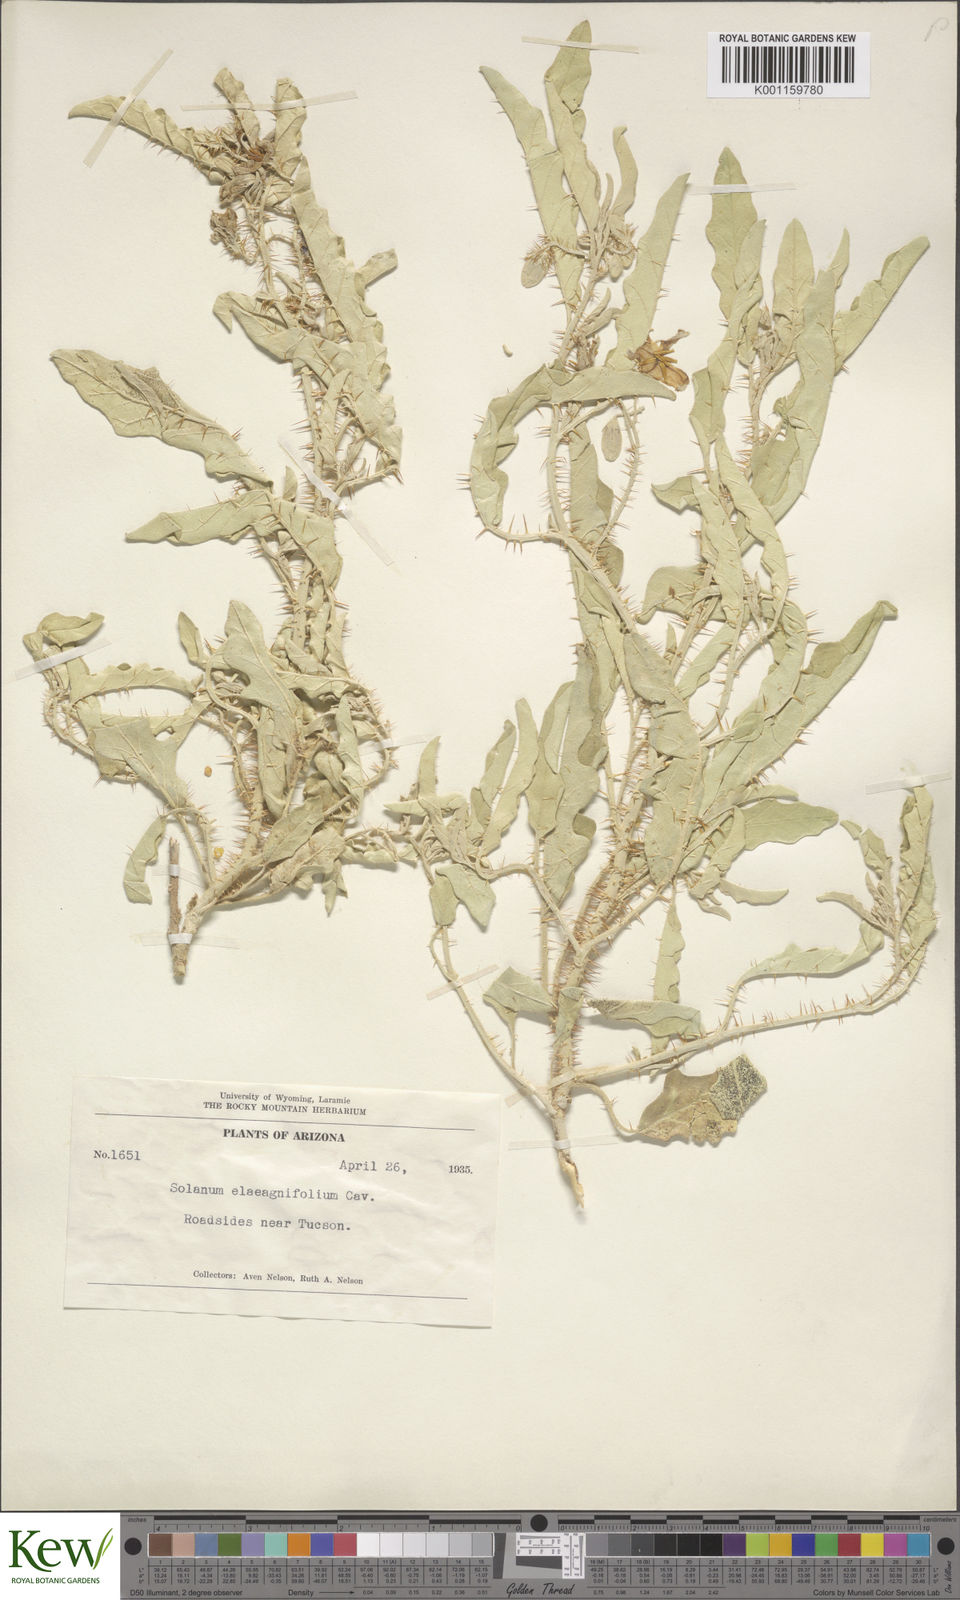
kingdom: Plantae
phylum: Tracheophyta
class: Magnoliopsida
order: Solanales
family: Solanaceae
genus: Solanum
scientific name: Solanum
